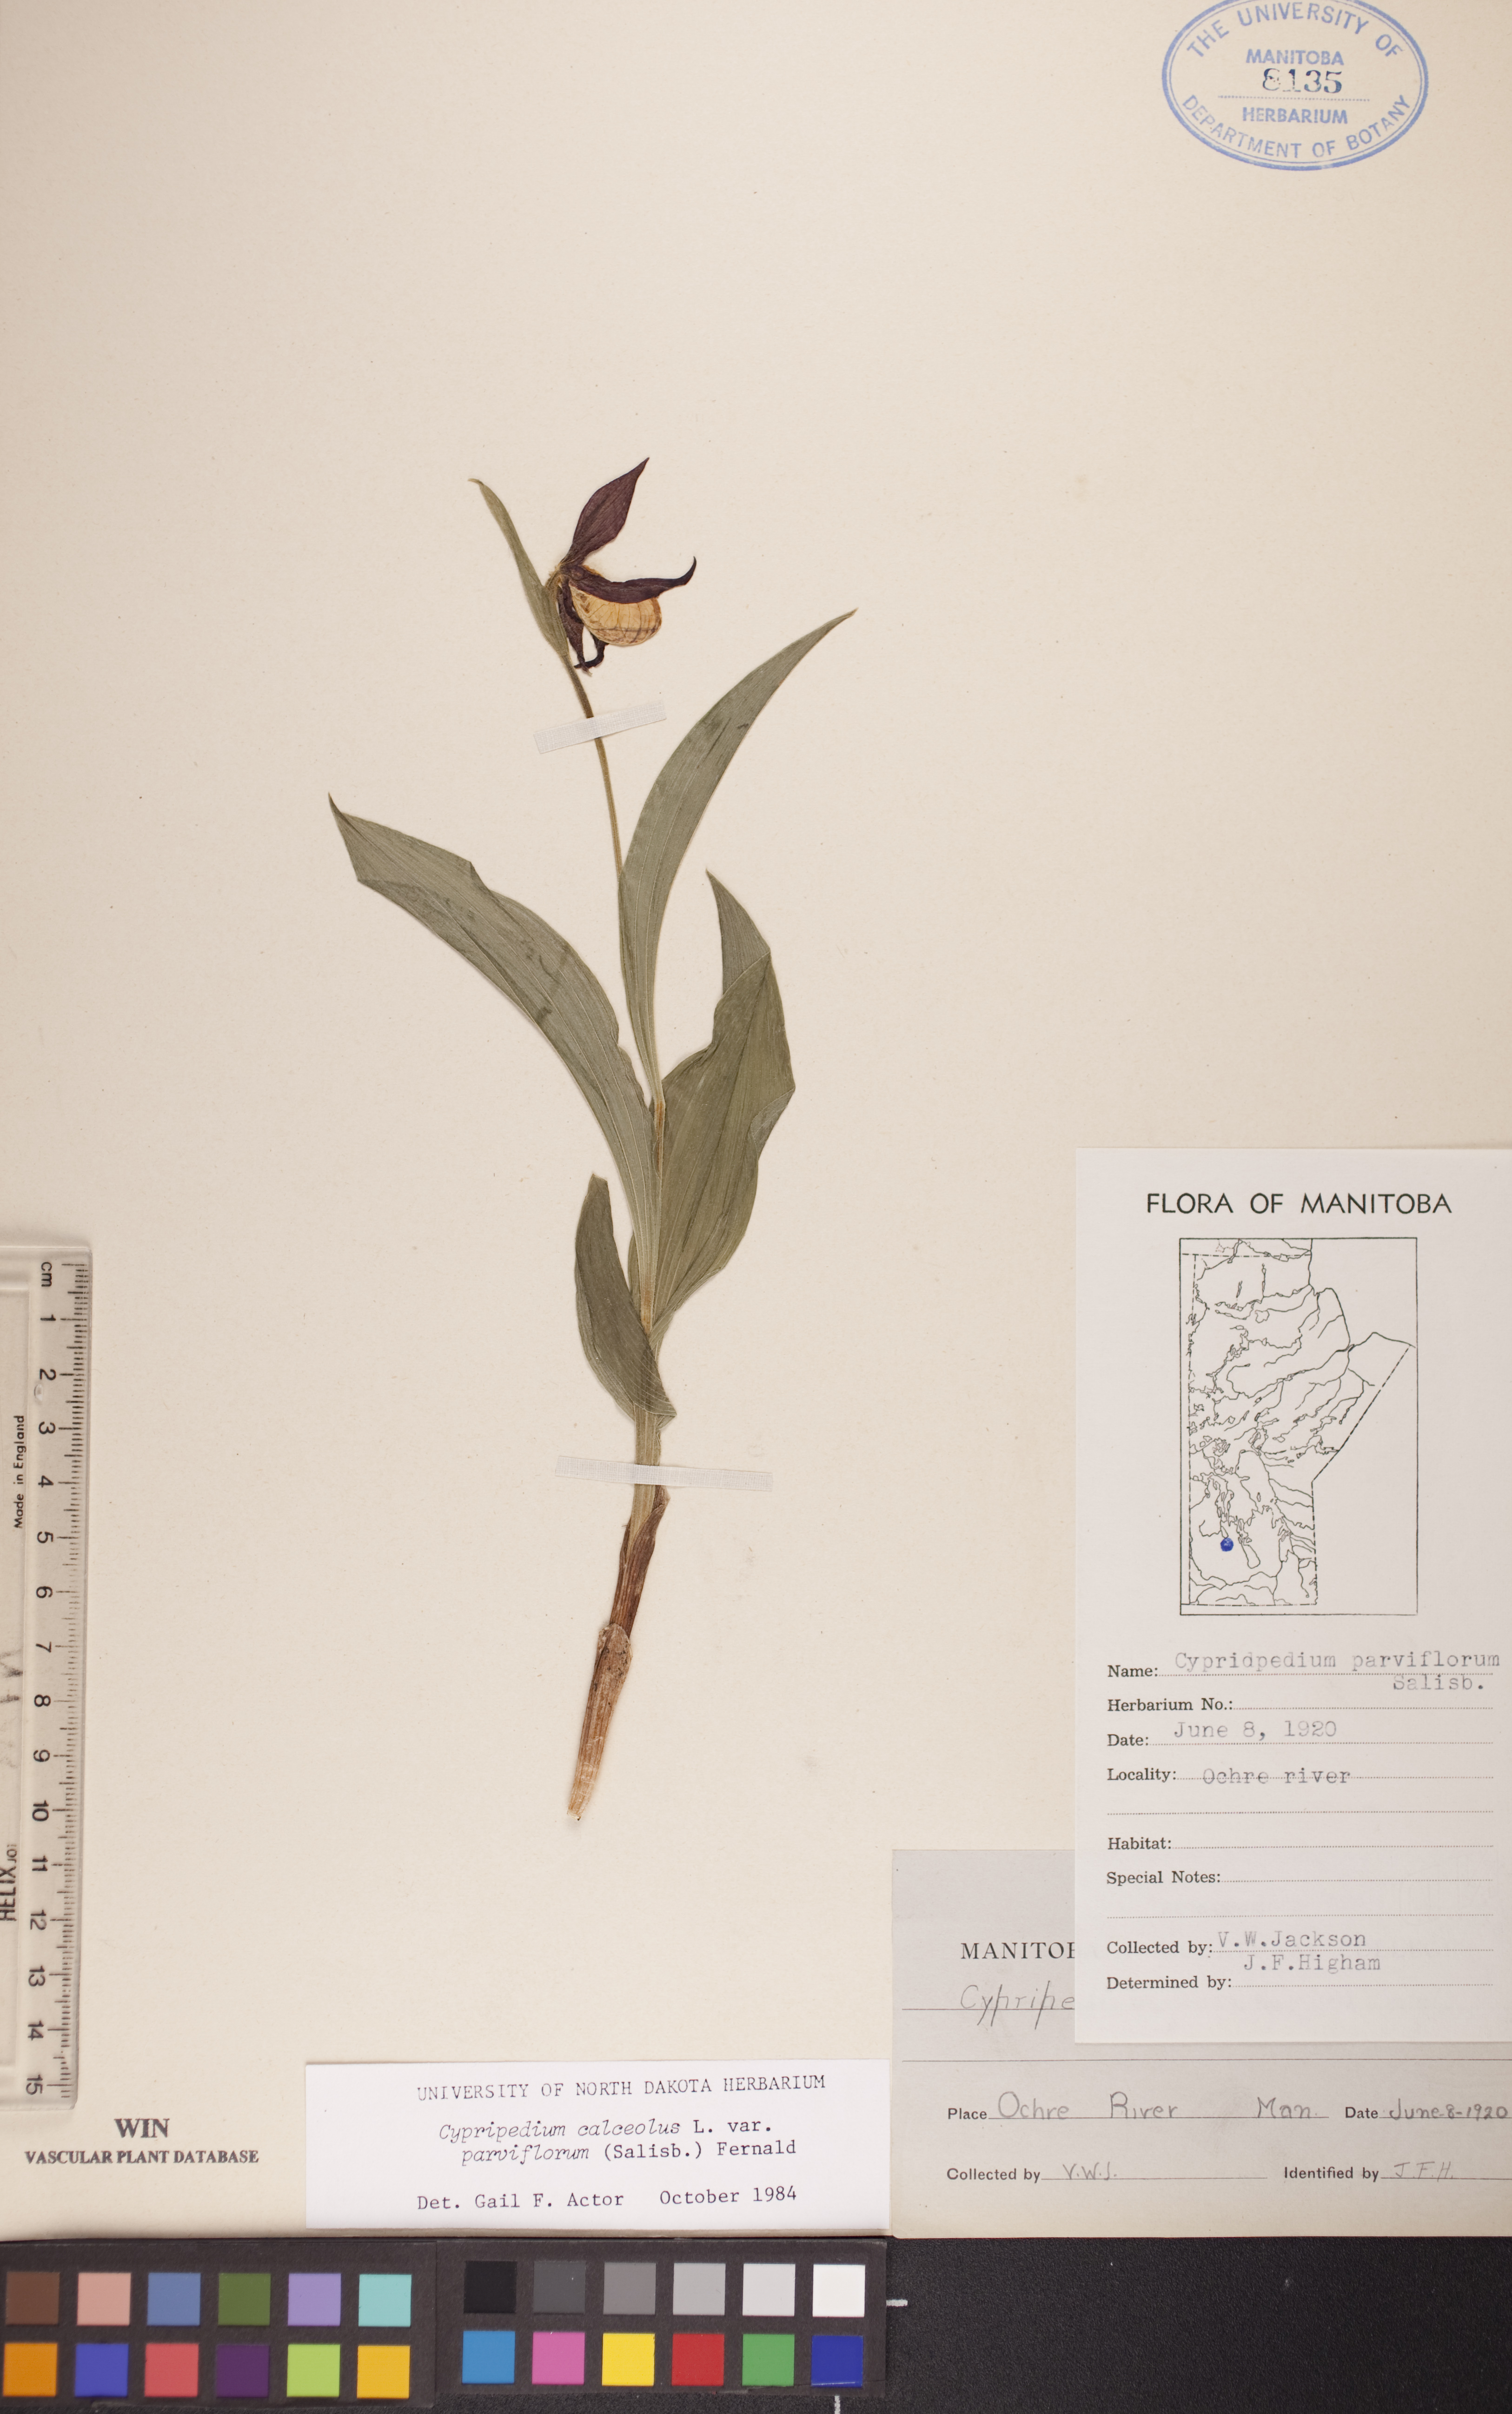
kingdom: Plantae
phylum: Tracheophyta
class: Liliopsida
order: Asparagales
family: Orchidaceae
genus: Cypripedium
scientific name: Cypripedium parviflorum
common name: American yellow lady's-slipper
